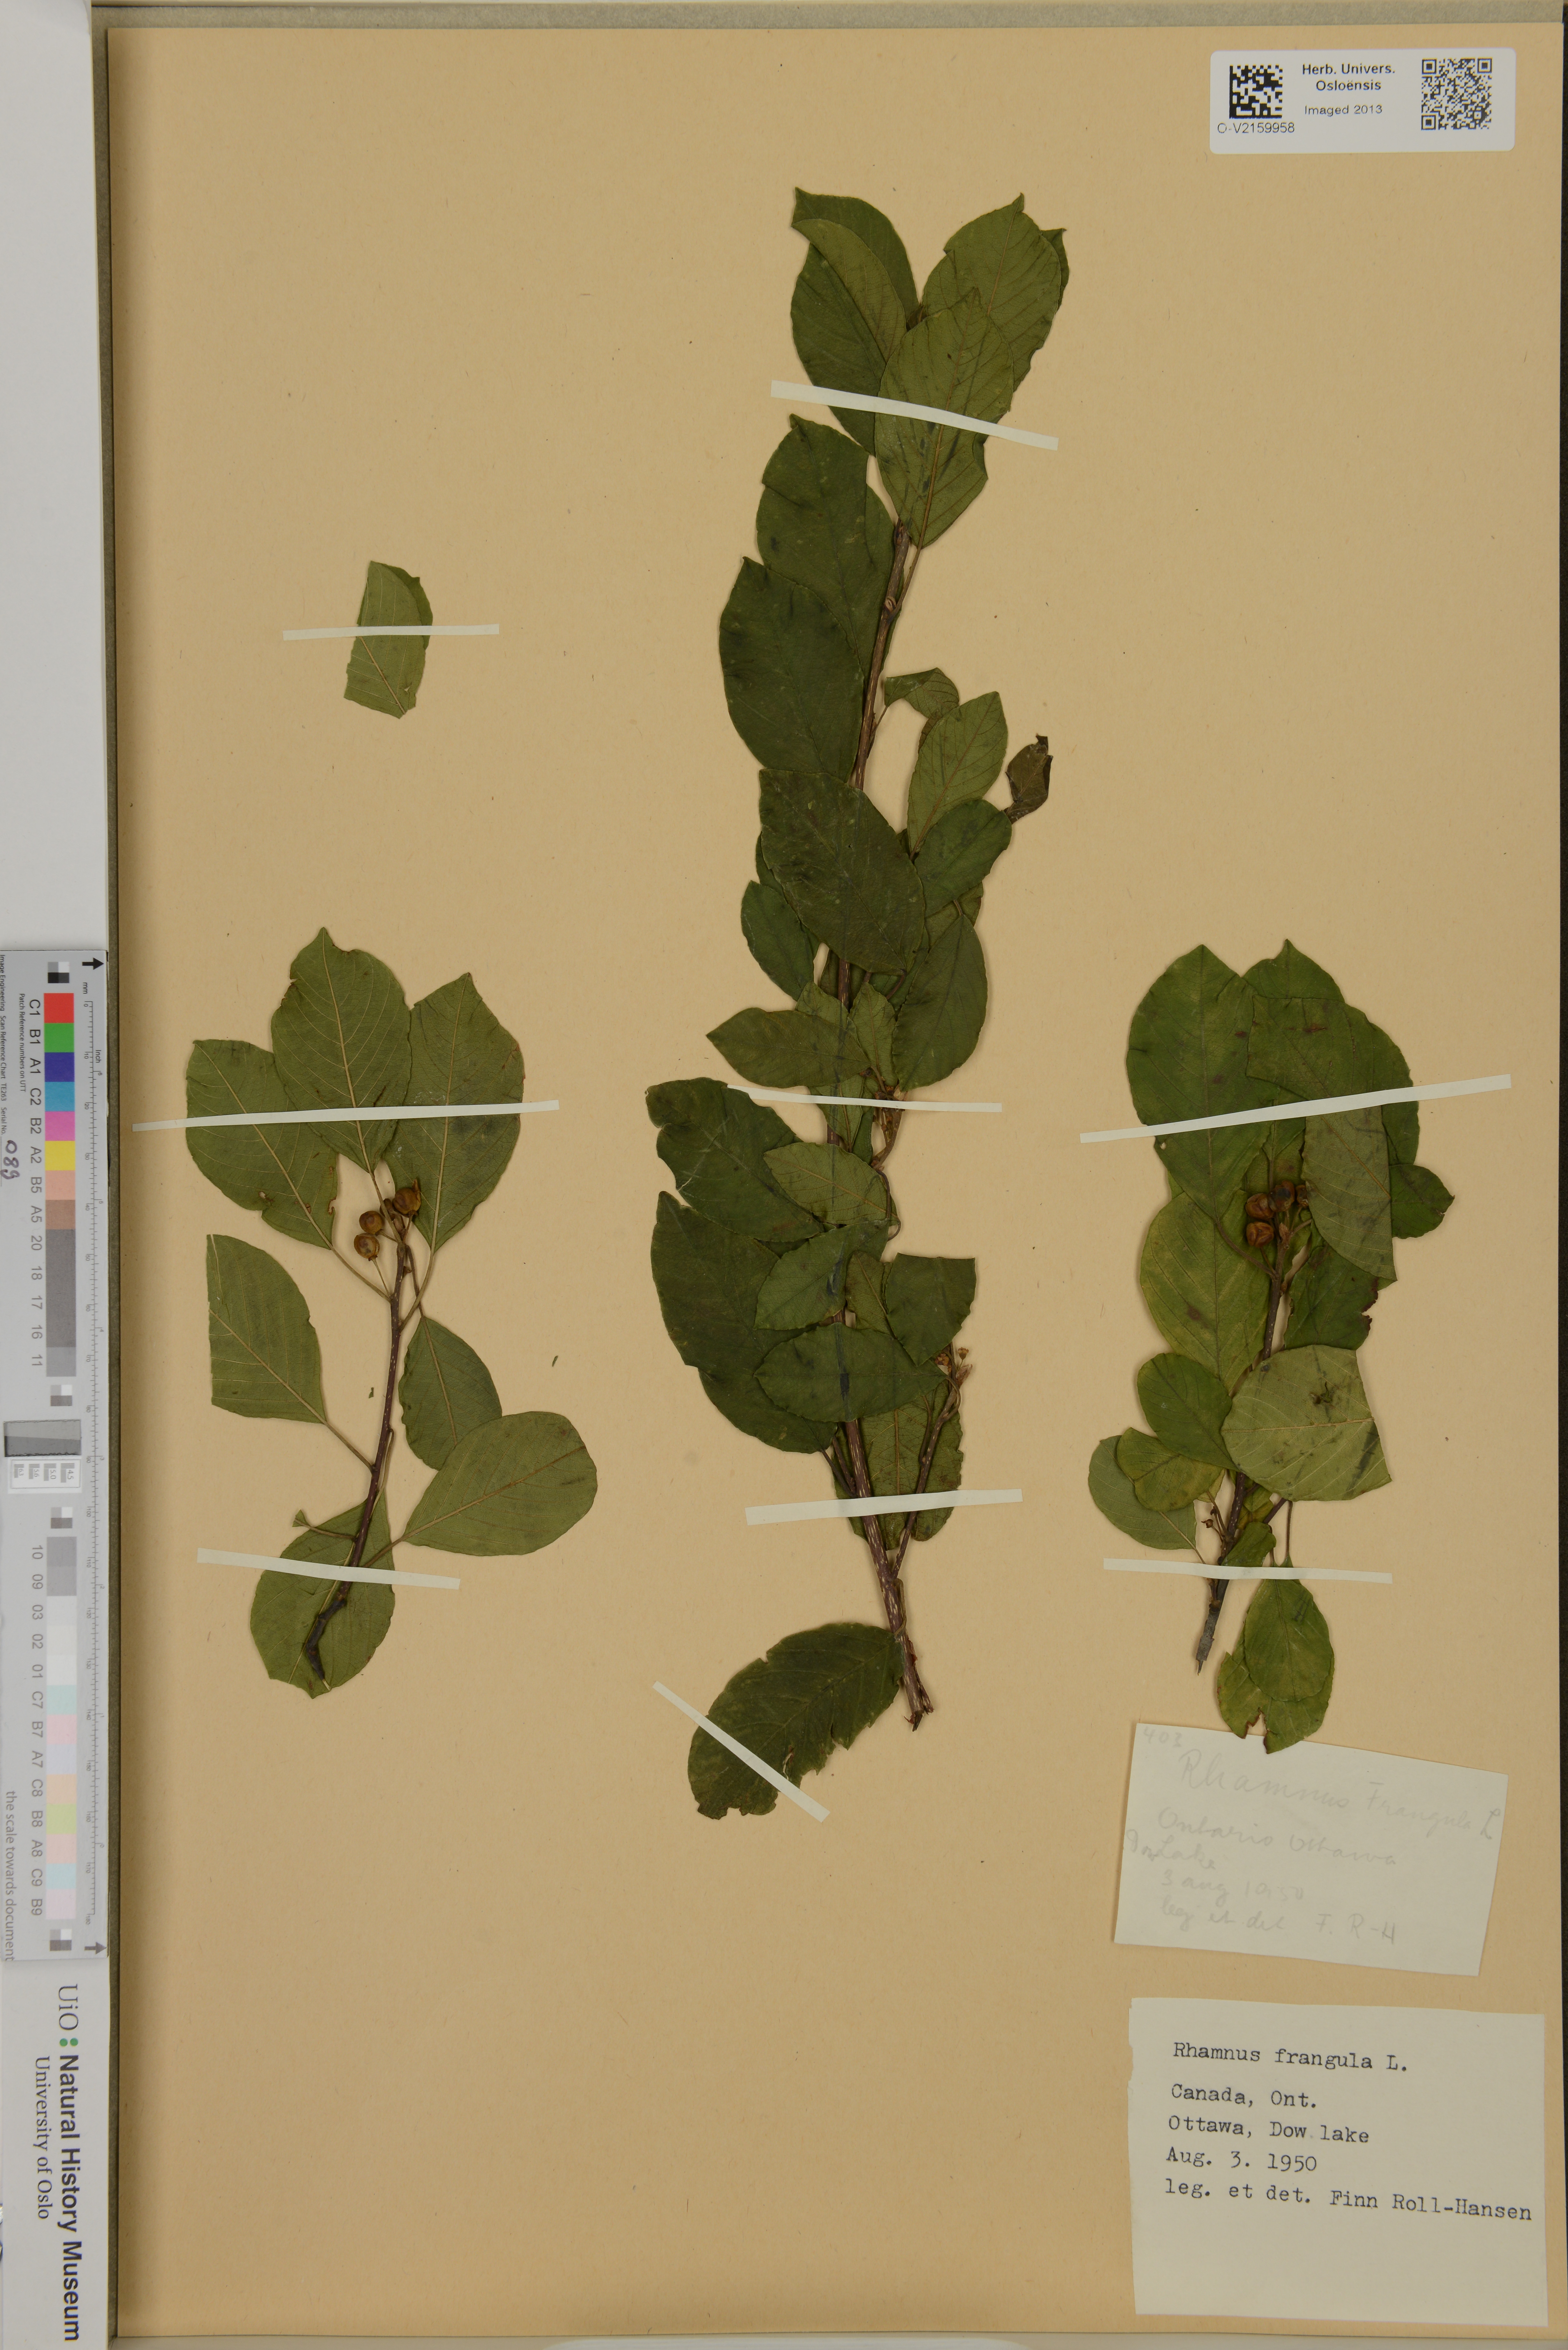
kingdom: Plantae
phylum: Tracheophyta
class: Magnoliopsida
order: Rosales
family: Rhamnaceae
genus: Frangula
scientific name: Frangula alnus
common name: Alder buckthorn
